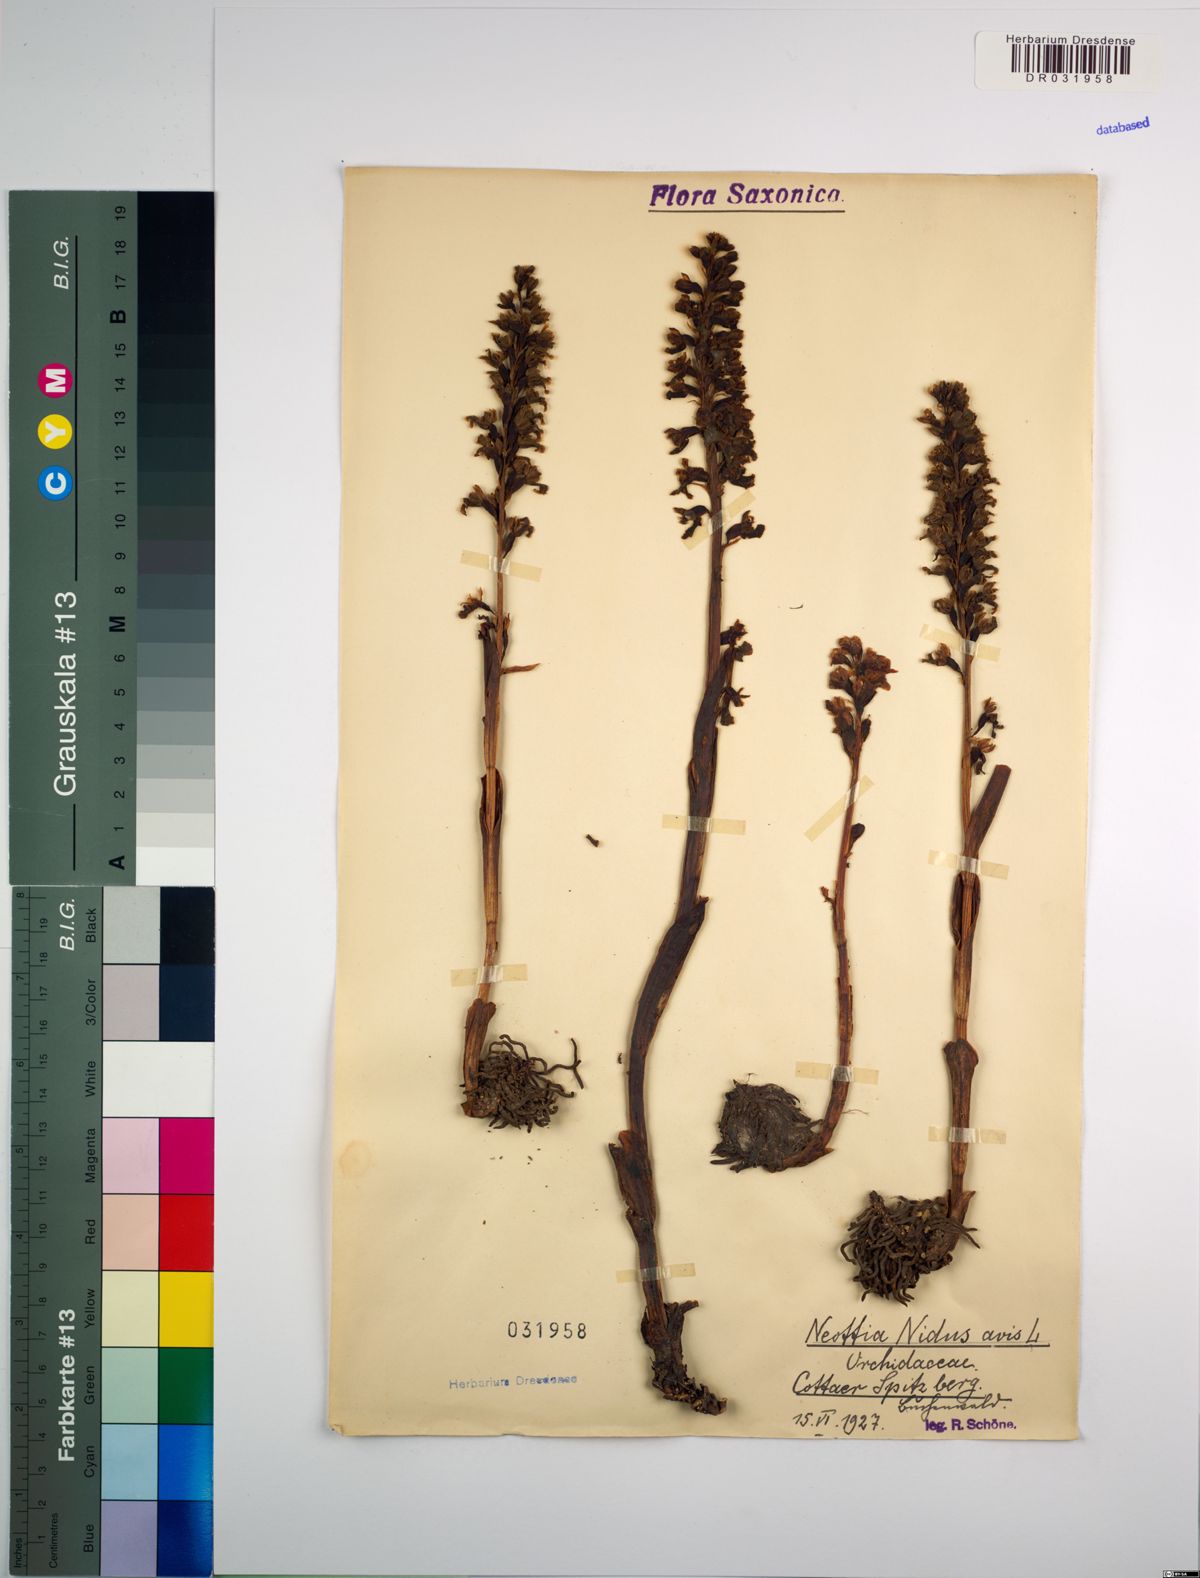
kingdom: Plantae
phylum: Tracheophyta
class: Liliopsida
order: Asparagales
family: Orchidaceae
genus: Neottia
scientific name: Neottia nidus-avis
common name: Bird's-nest orchid
